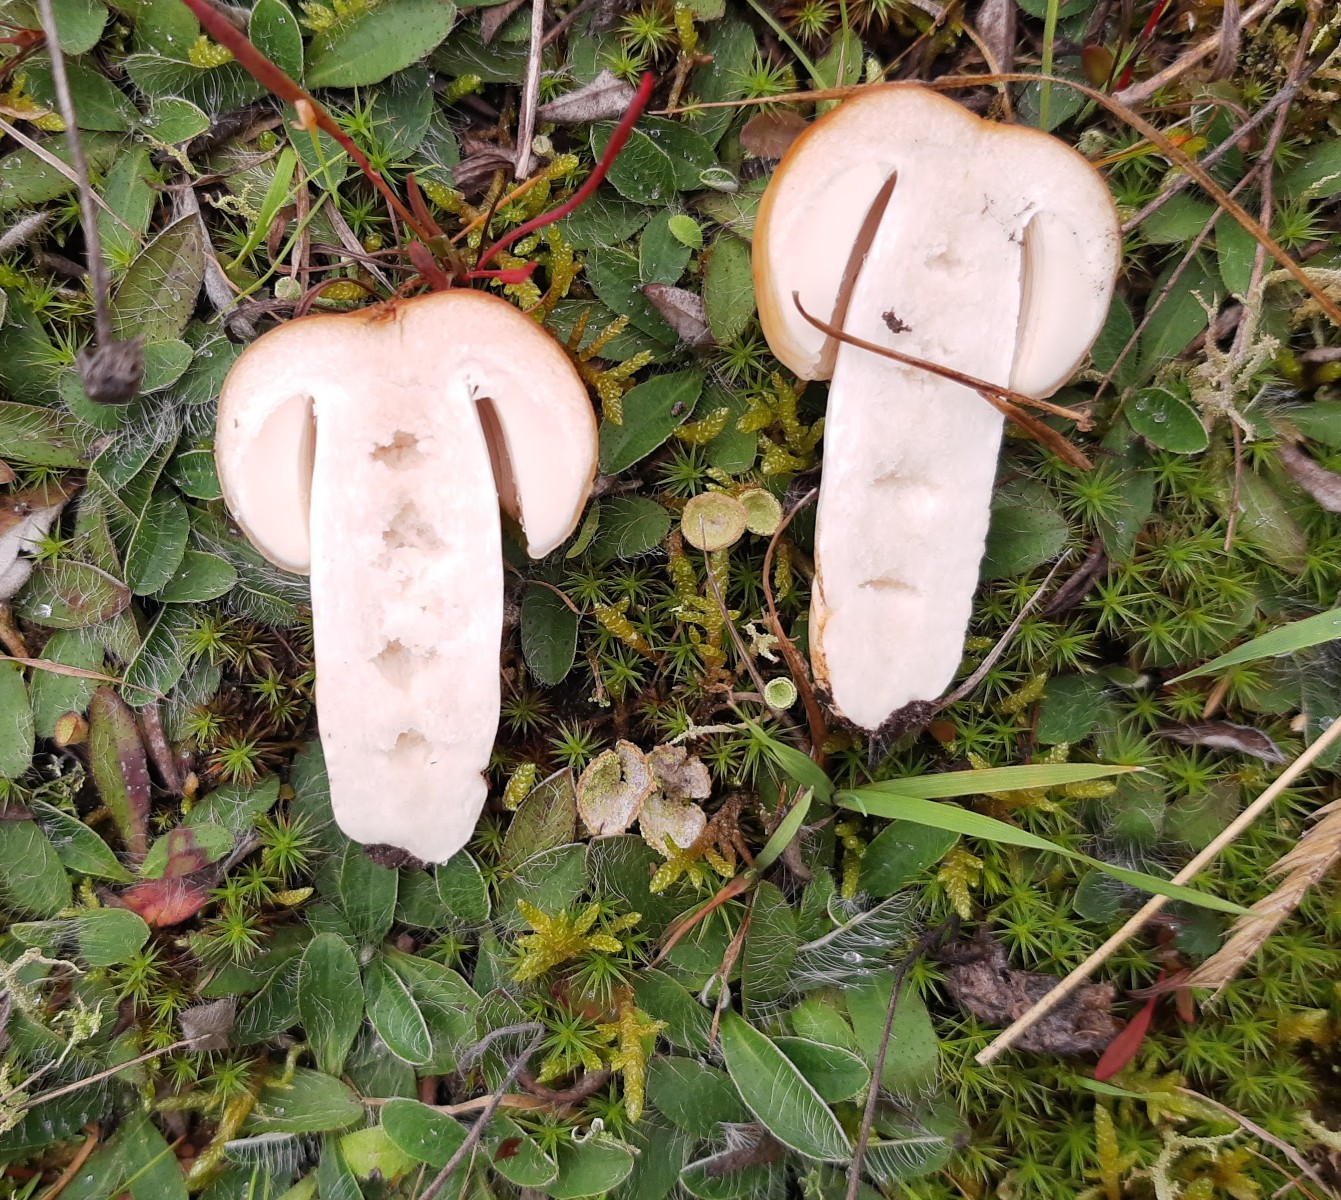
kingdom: Fungi
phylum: Basidiomycota
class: Agaricomycetes
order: Russulales
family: Russulaceae
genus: Russula
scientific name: Russula grata
